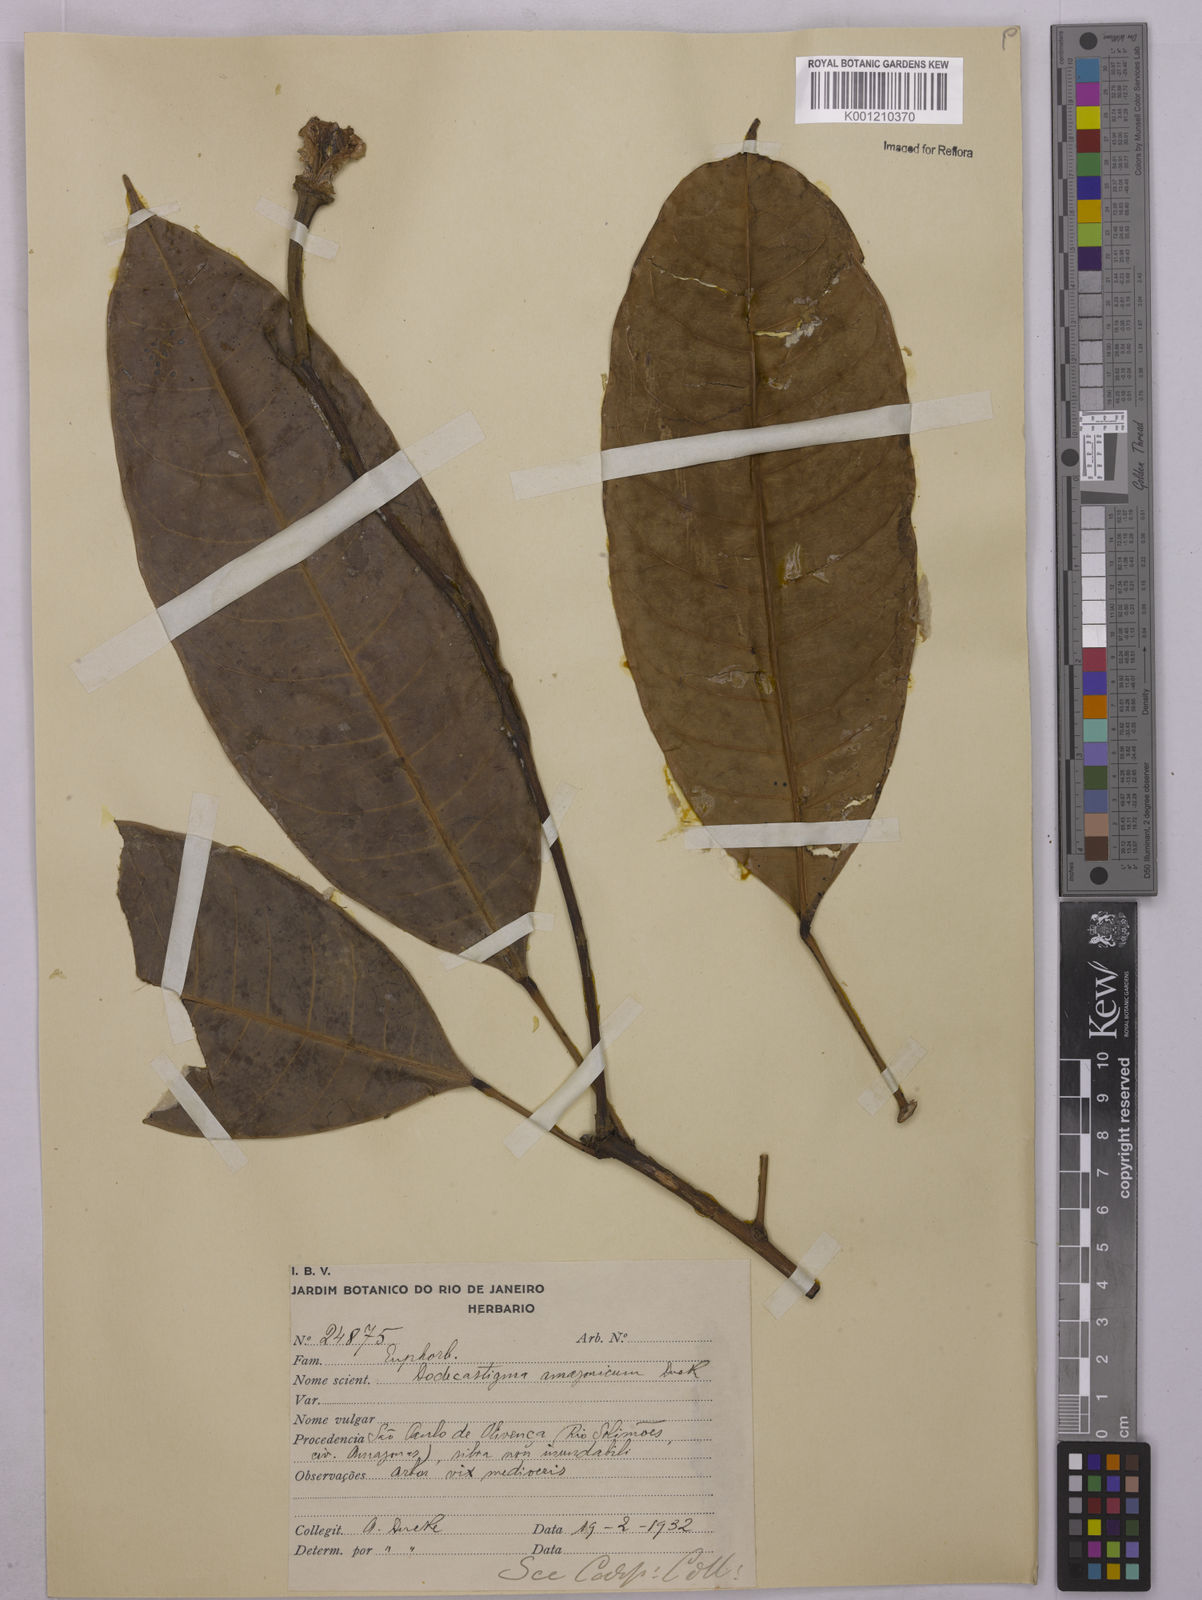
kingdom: Plantae
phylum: Tracheophyta
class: Magnoliopsida
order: Malpighiales
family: Euphorbiaceae
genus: Dodecastigma
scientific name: Dodecastigma amazonicum
